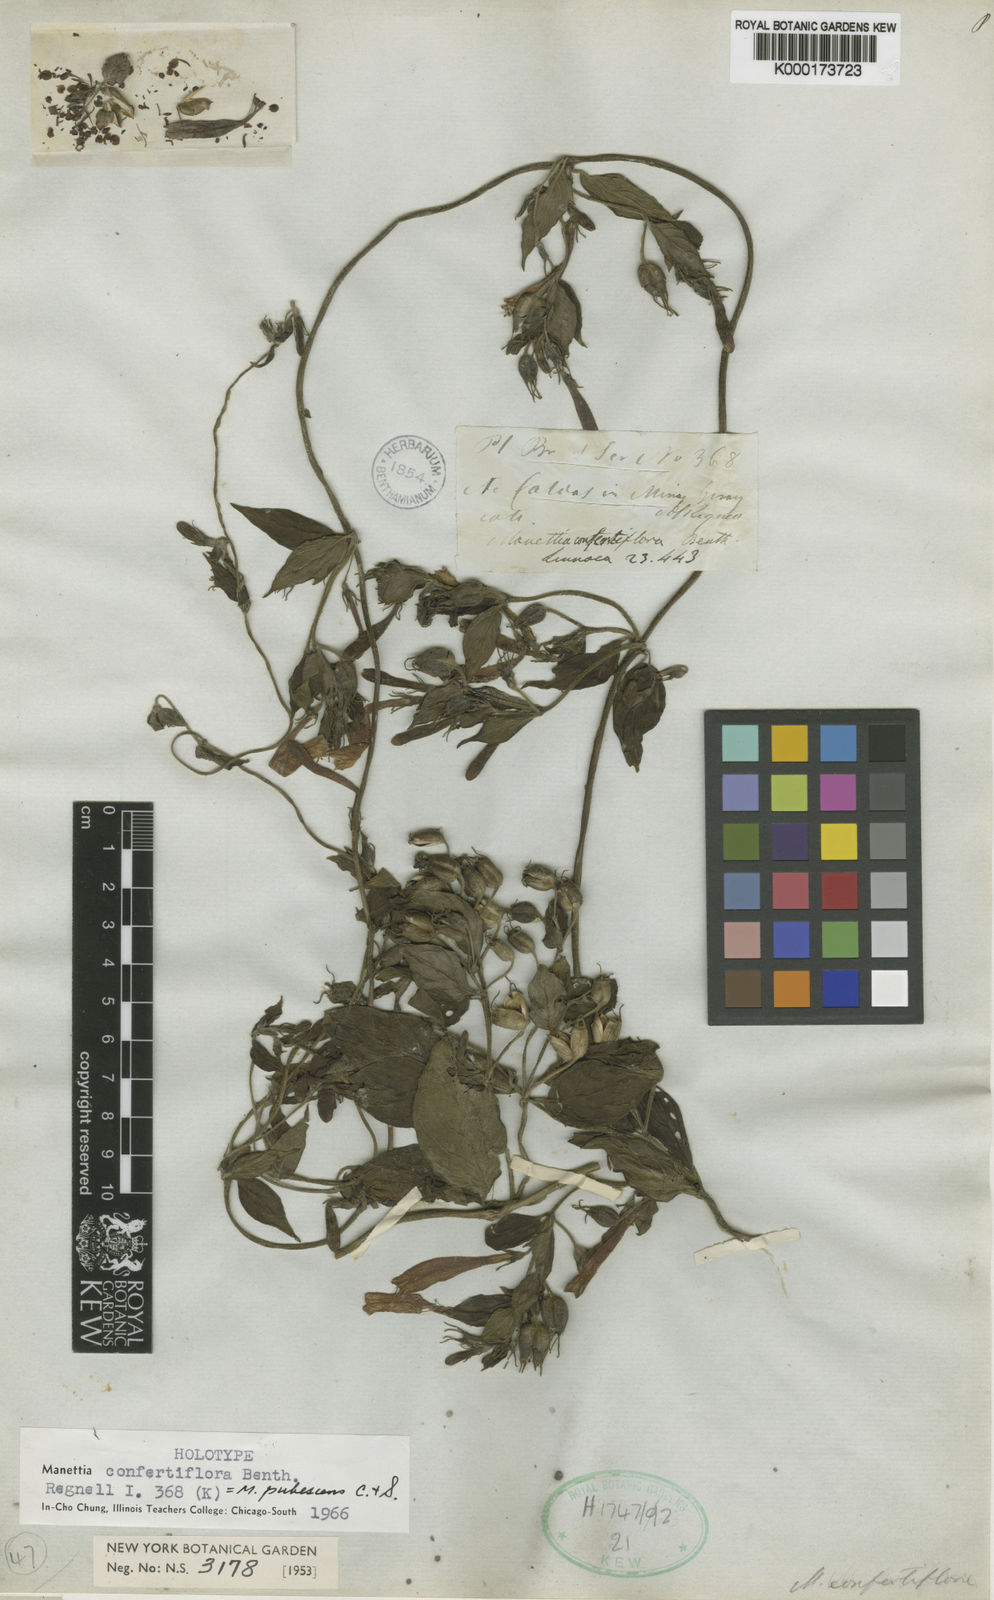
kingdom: Plantae
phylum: Tracheophyta
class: Magnoliopsida
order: Gentianales
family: Rubiaceae
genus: Manettia
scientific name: Manettia pubescens
